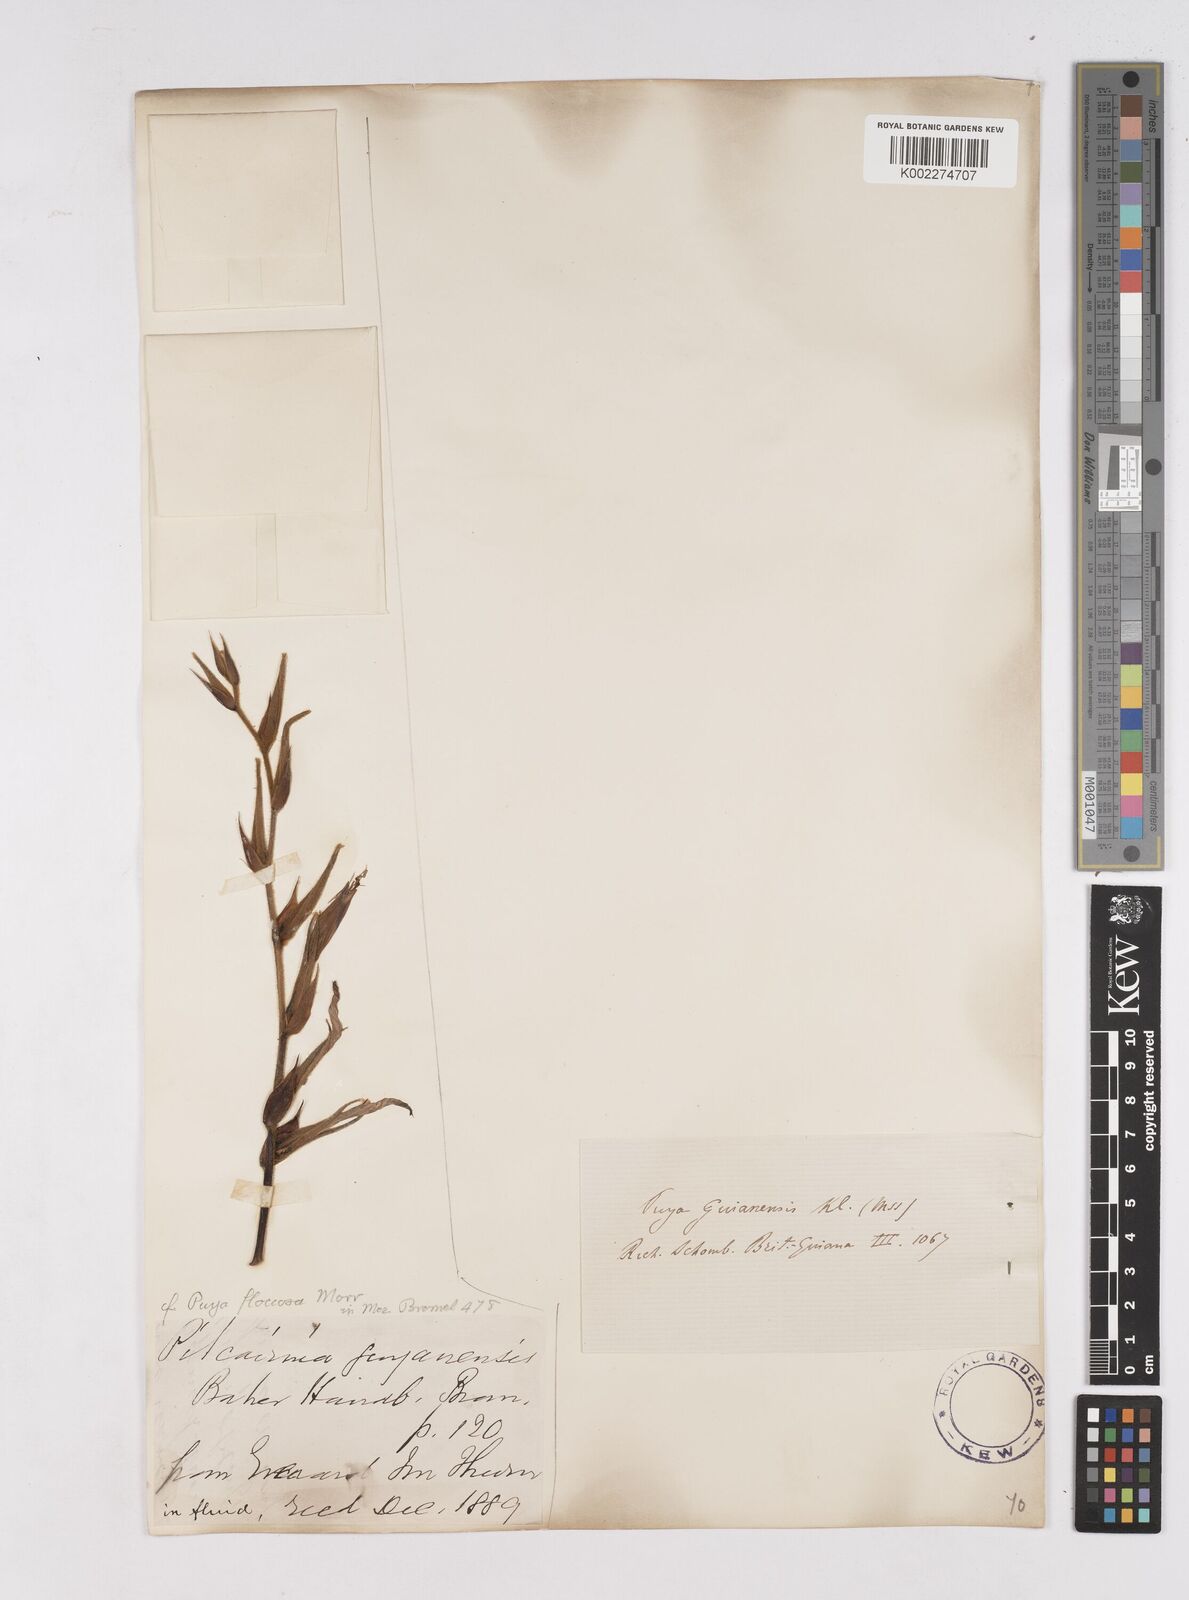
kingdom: Plantae
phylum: Tracheophyta
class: Liliopsida
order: Poales
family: Bromeliaceae
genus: Puya
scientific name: Puya floccosa
